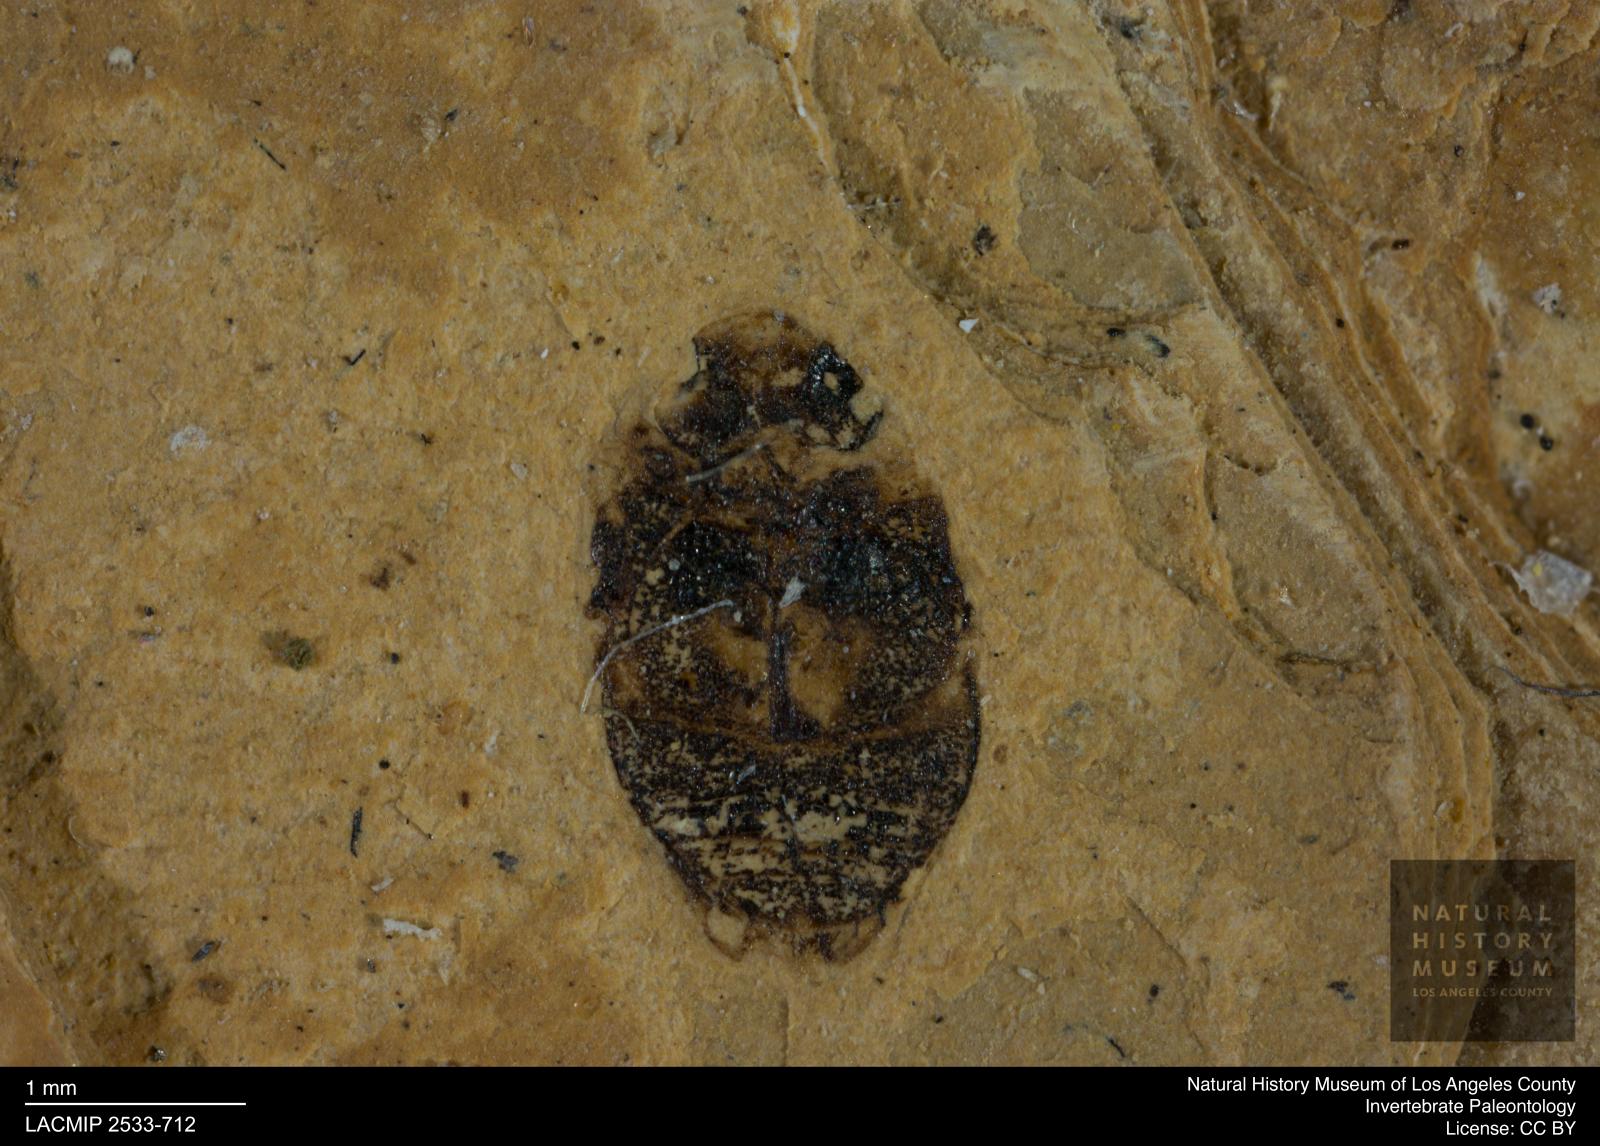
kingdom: Animalia
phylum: Arthropoda
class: Insecta
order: Coleoptera
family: Dytiscidae
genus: Oreodytes
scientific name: Oreodytes cryptolineatus
